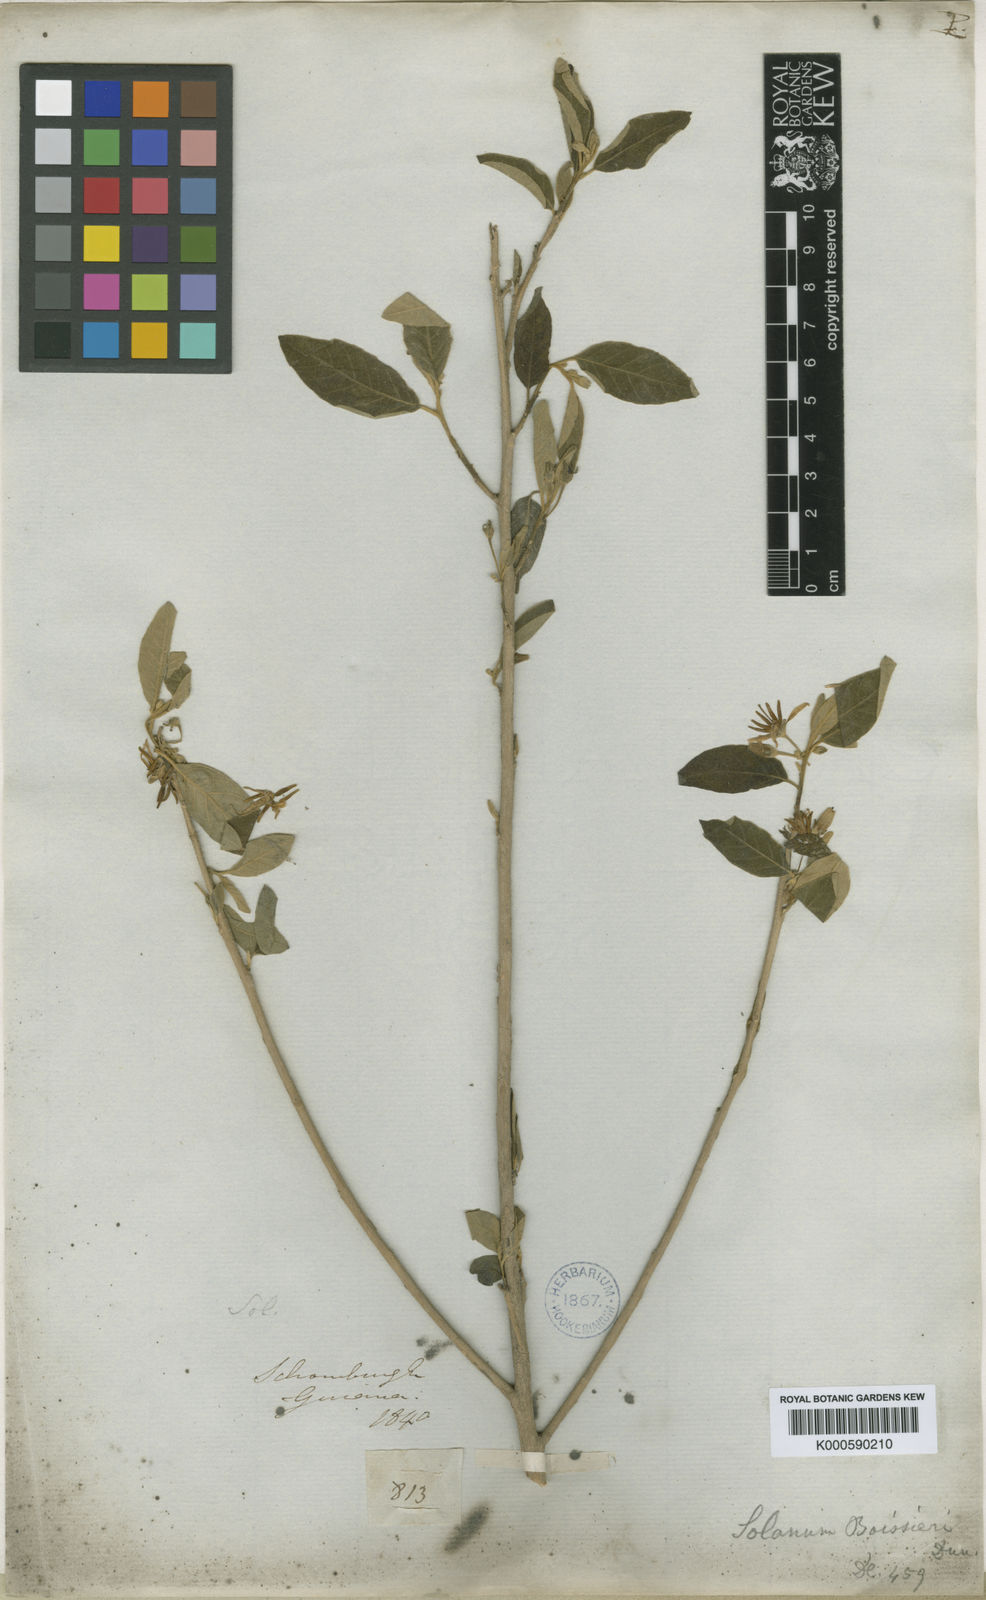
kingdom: Plantae
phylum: Tracheophyta
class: Magnoliopsida
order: Solanales
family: Solanaceae
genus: Solanum
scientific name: Solanum schomburgkii
